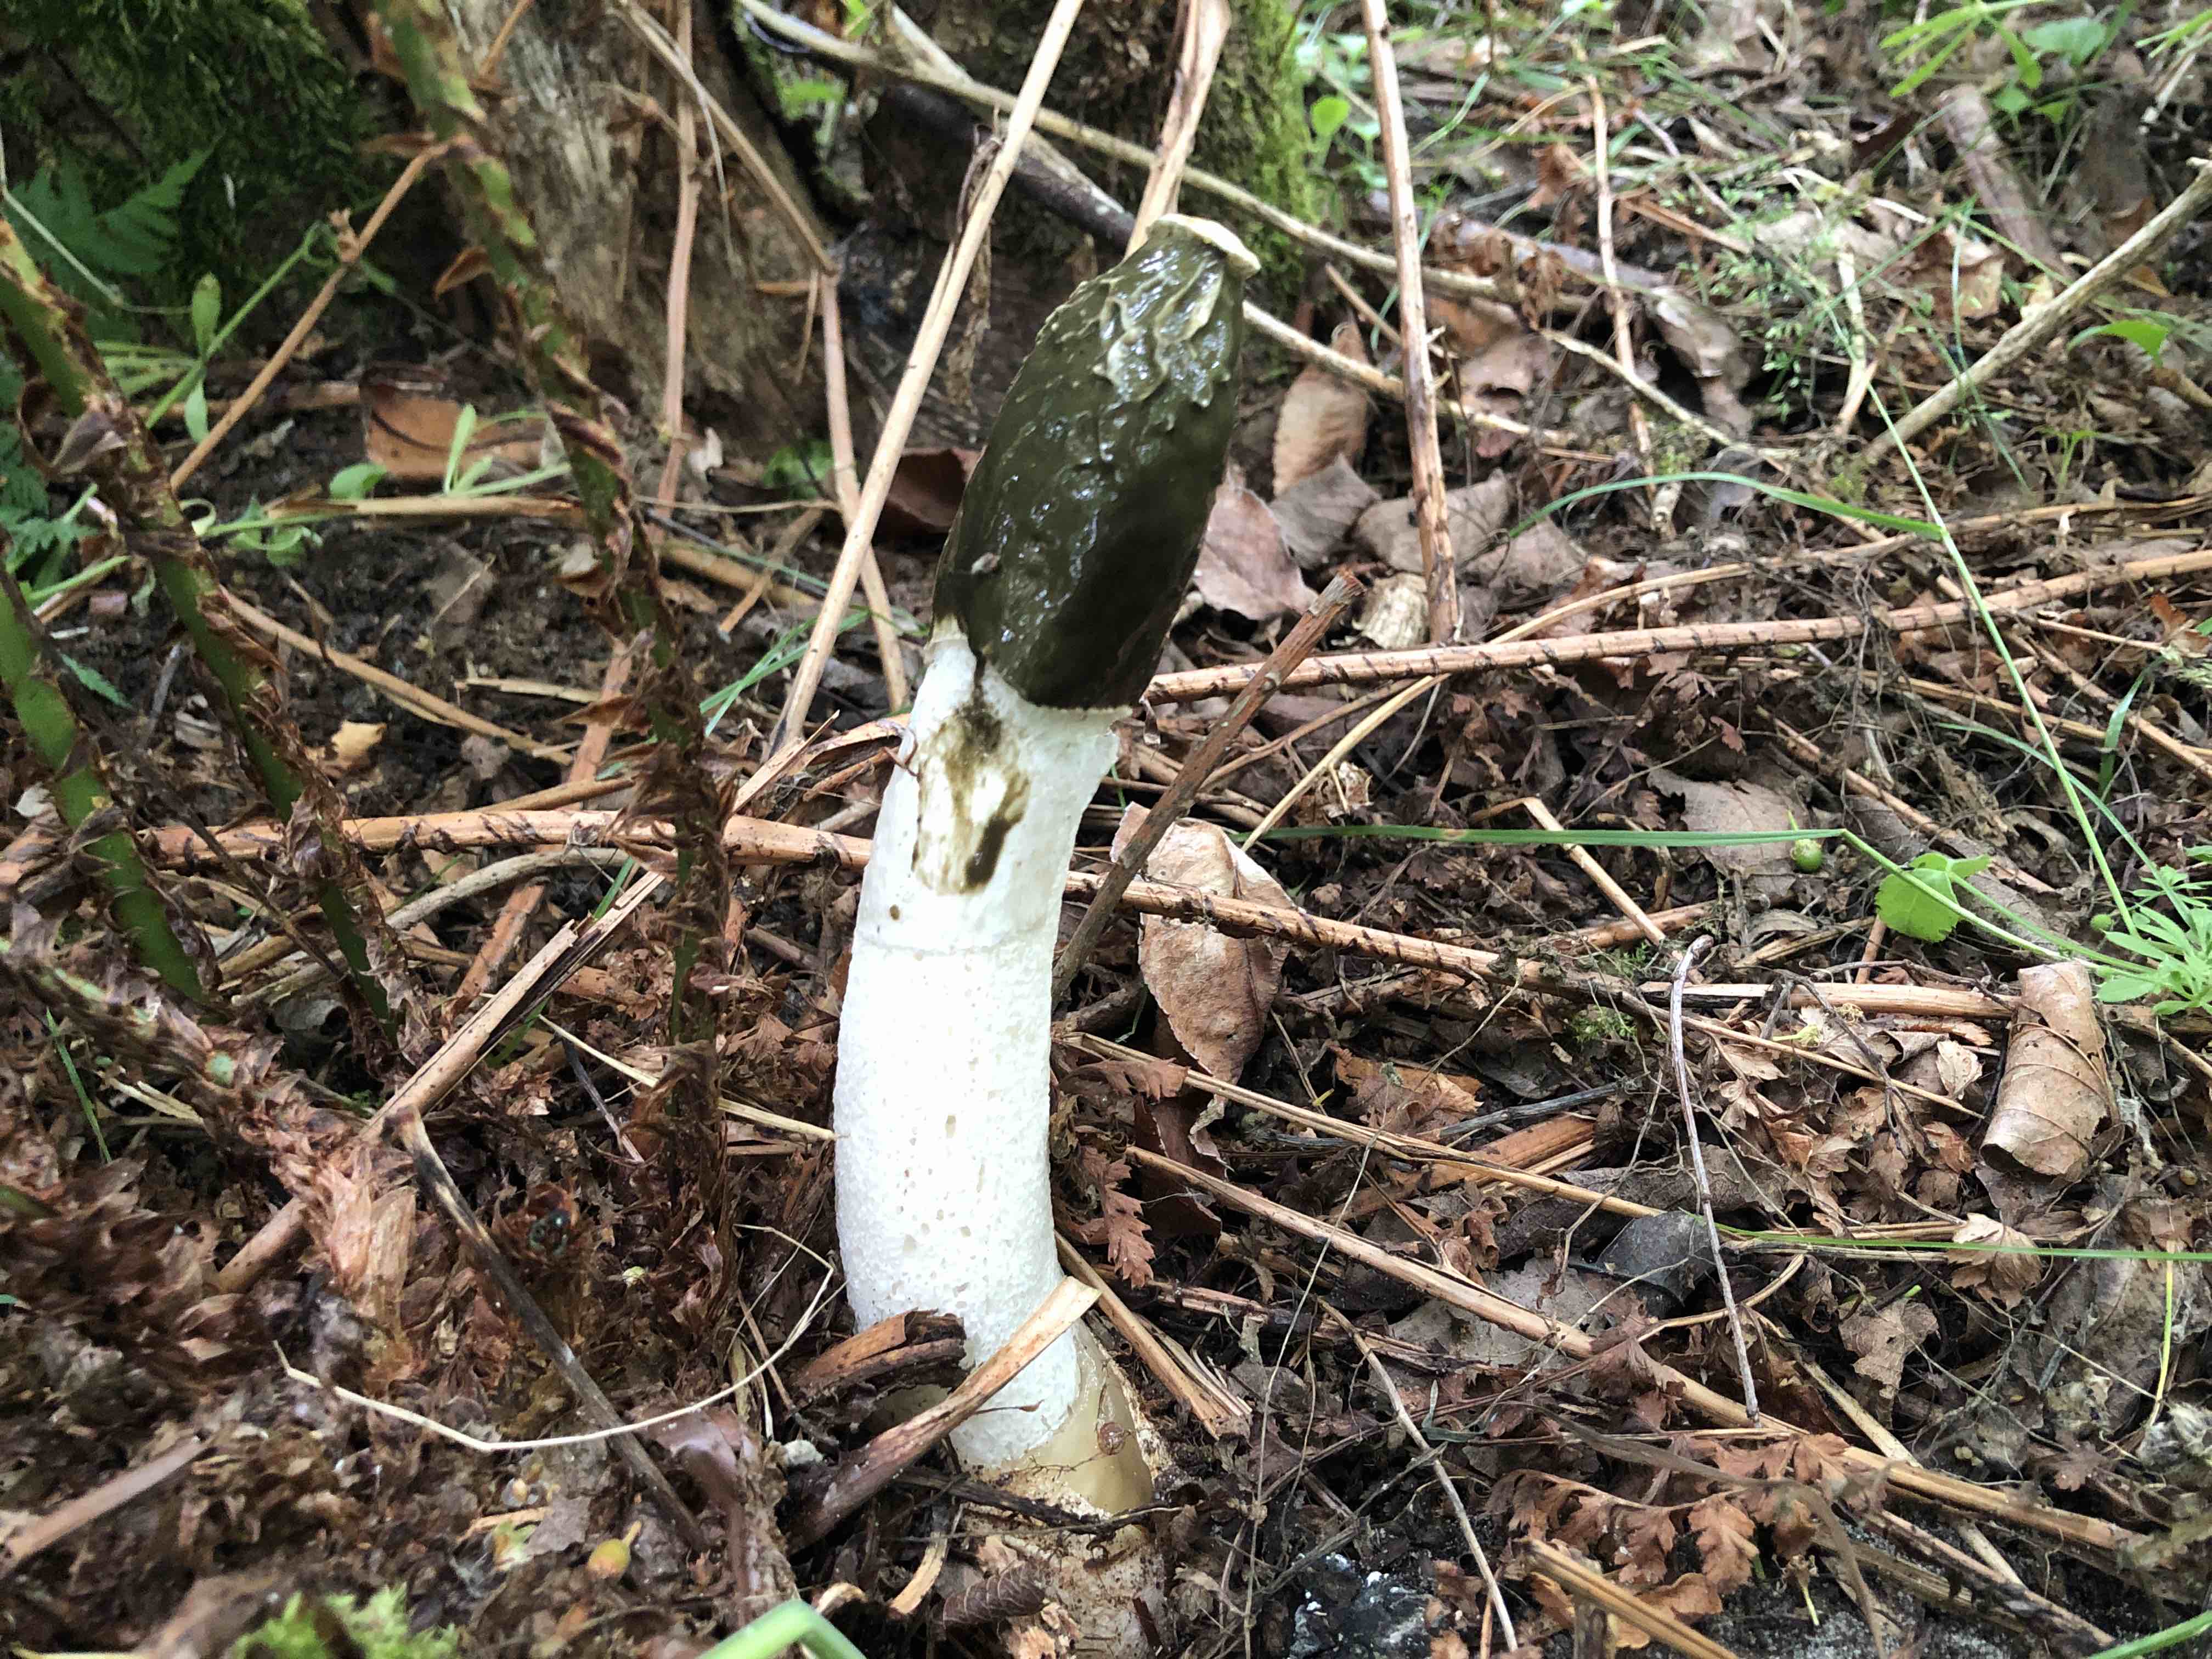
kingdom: Fungi
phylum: Basidiomycota
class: Agaricomycetes
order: Phallales
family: Phallaceae
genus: Phallus
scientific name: Phallus impudicus
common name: almindelig stinksvamp
